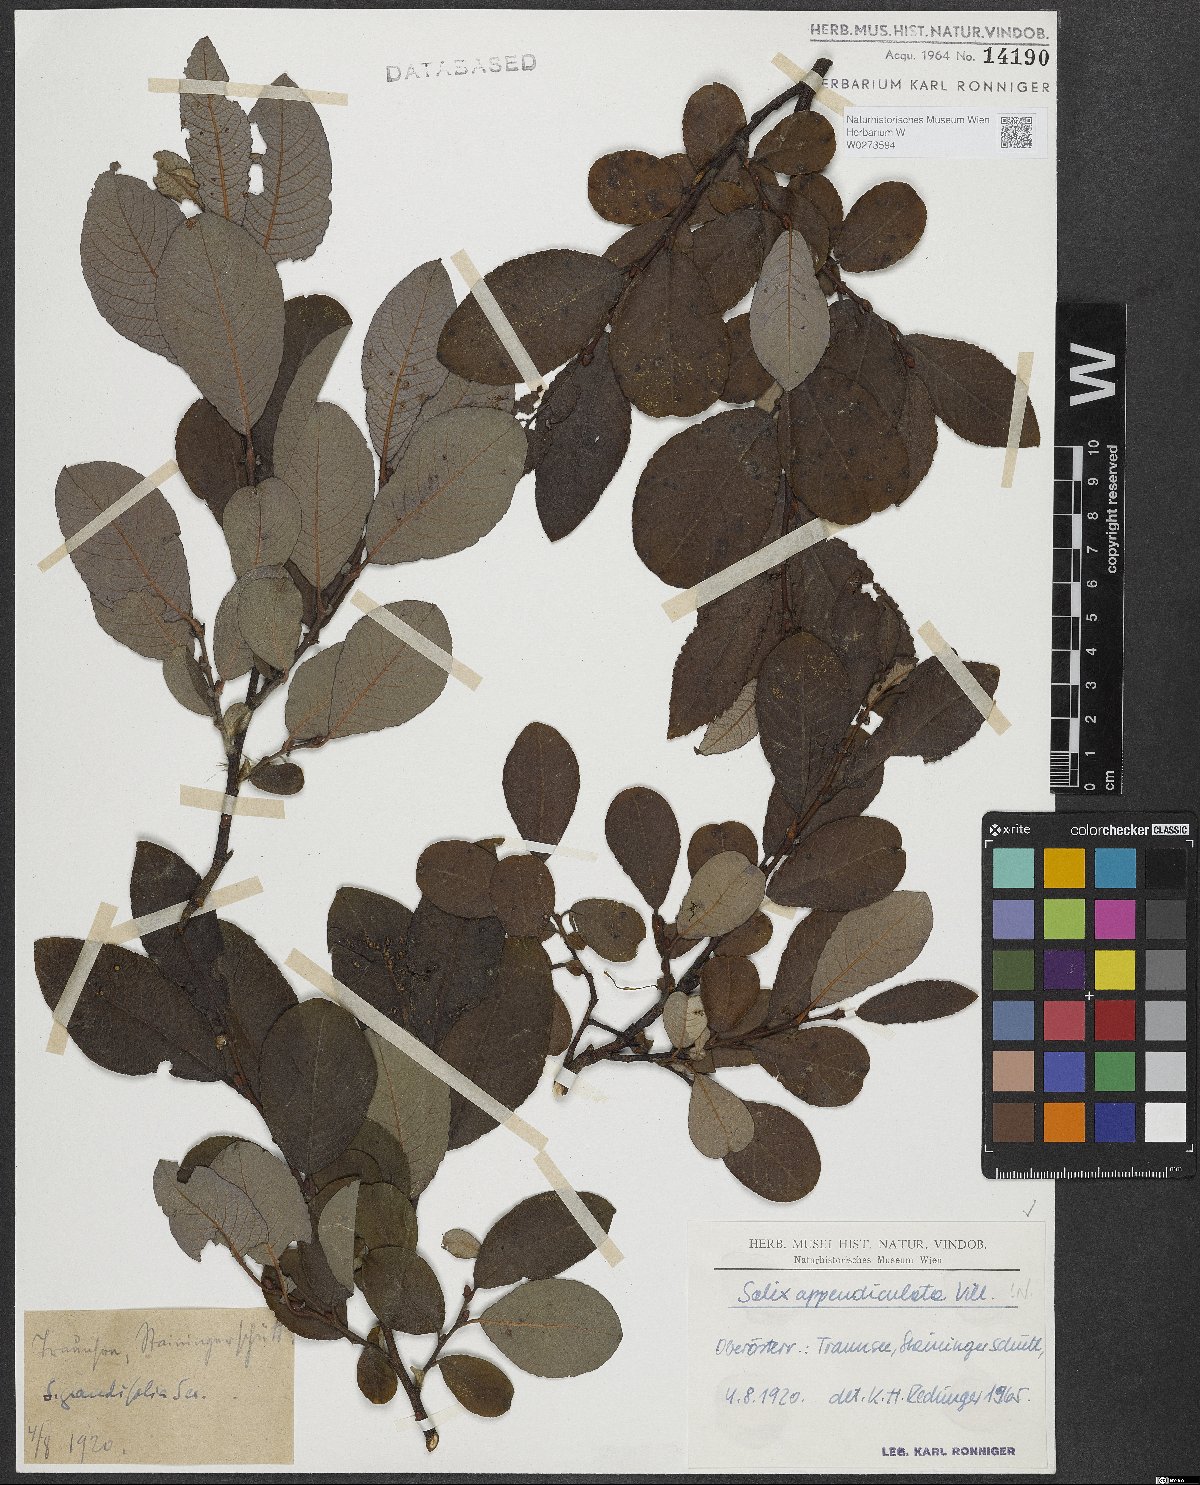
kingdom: Plantae
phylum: Tracheophyta
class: Magnoliopsida
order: Malpighiales
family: Salicaceae
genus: Salix
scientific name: Salix appendiculata
